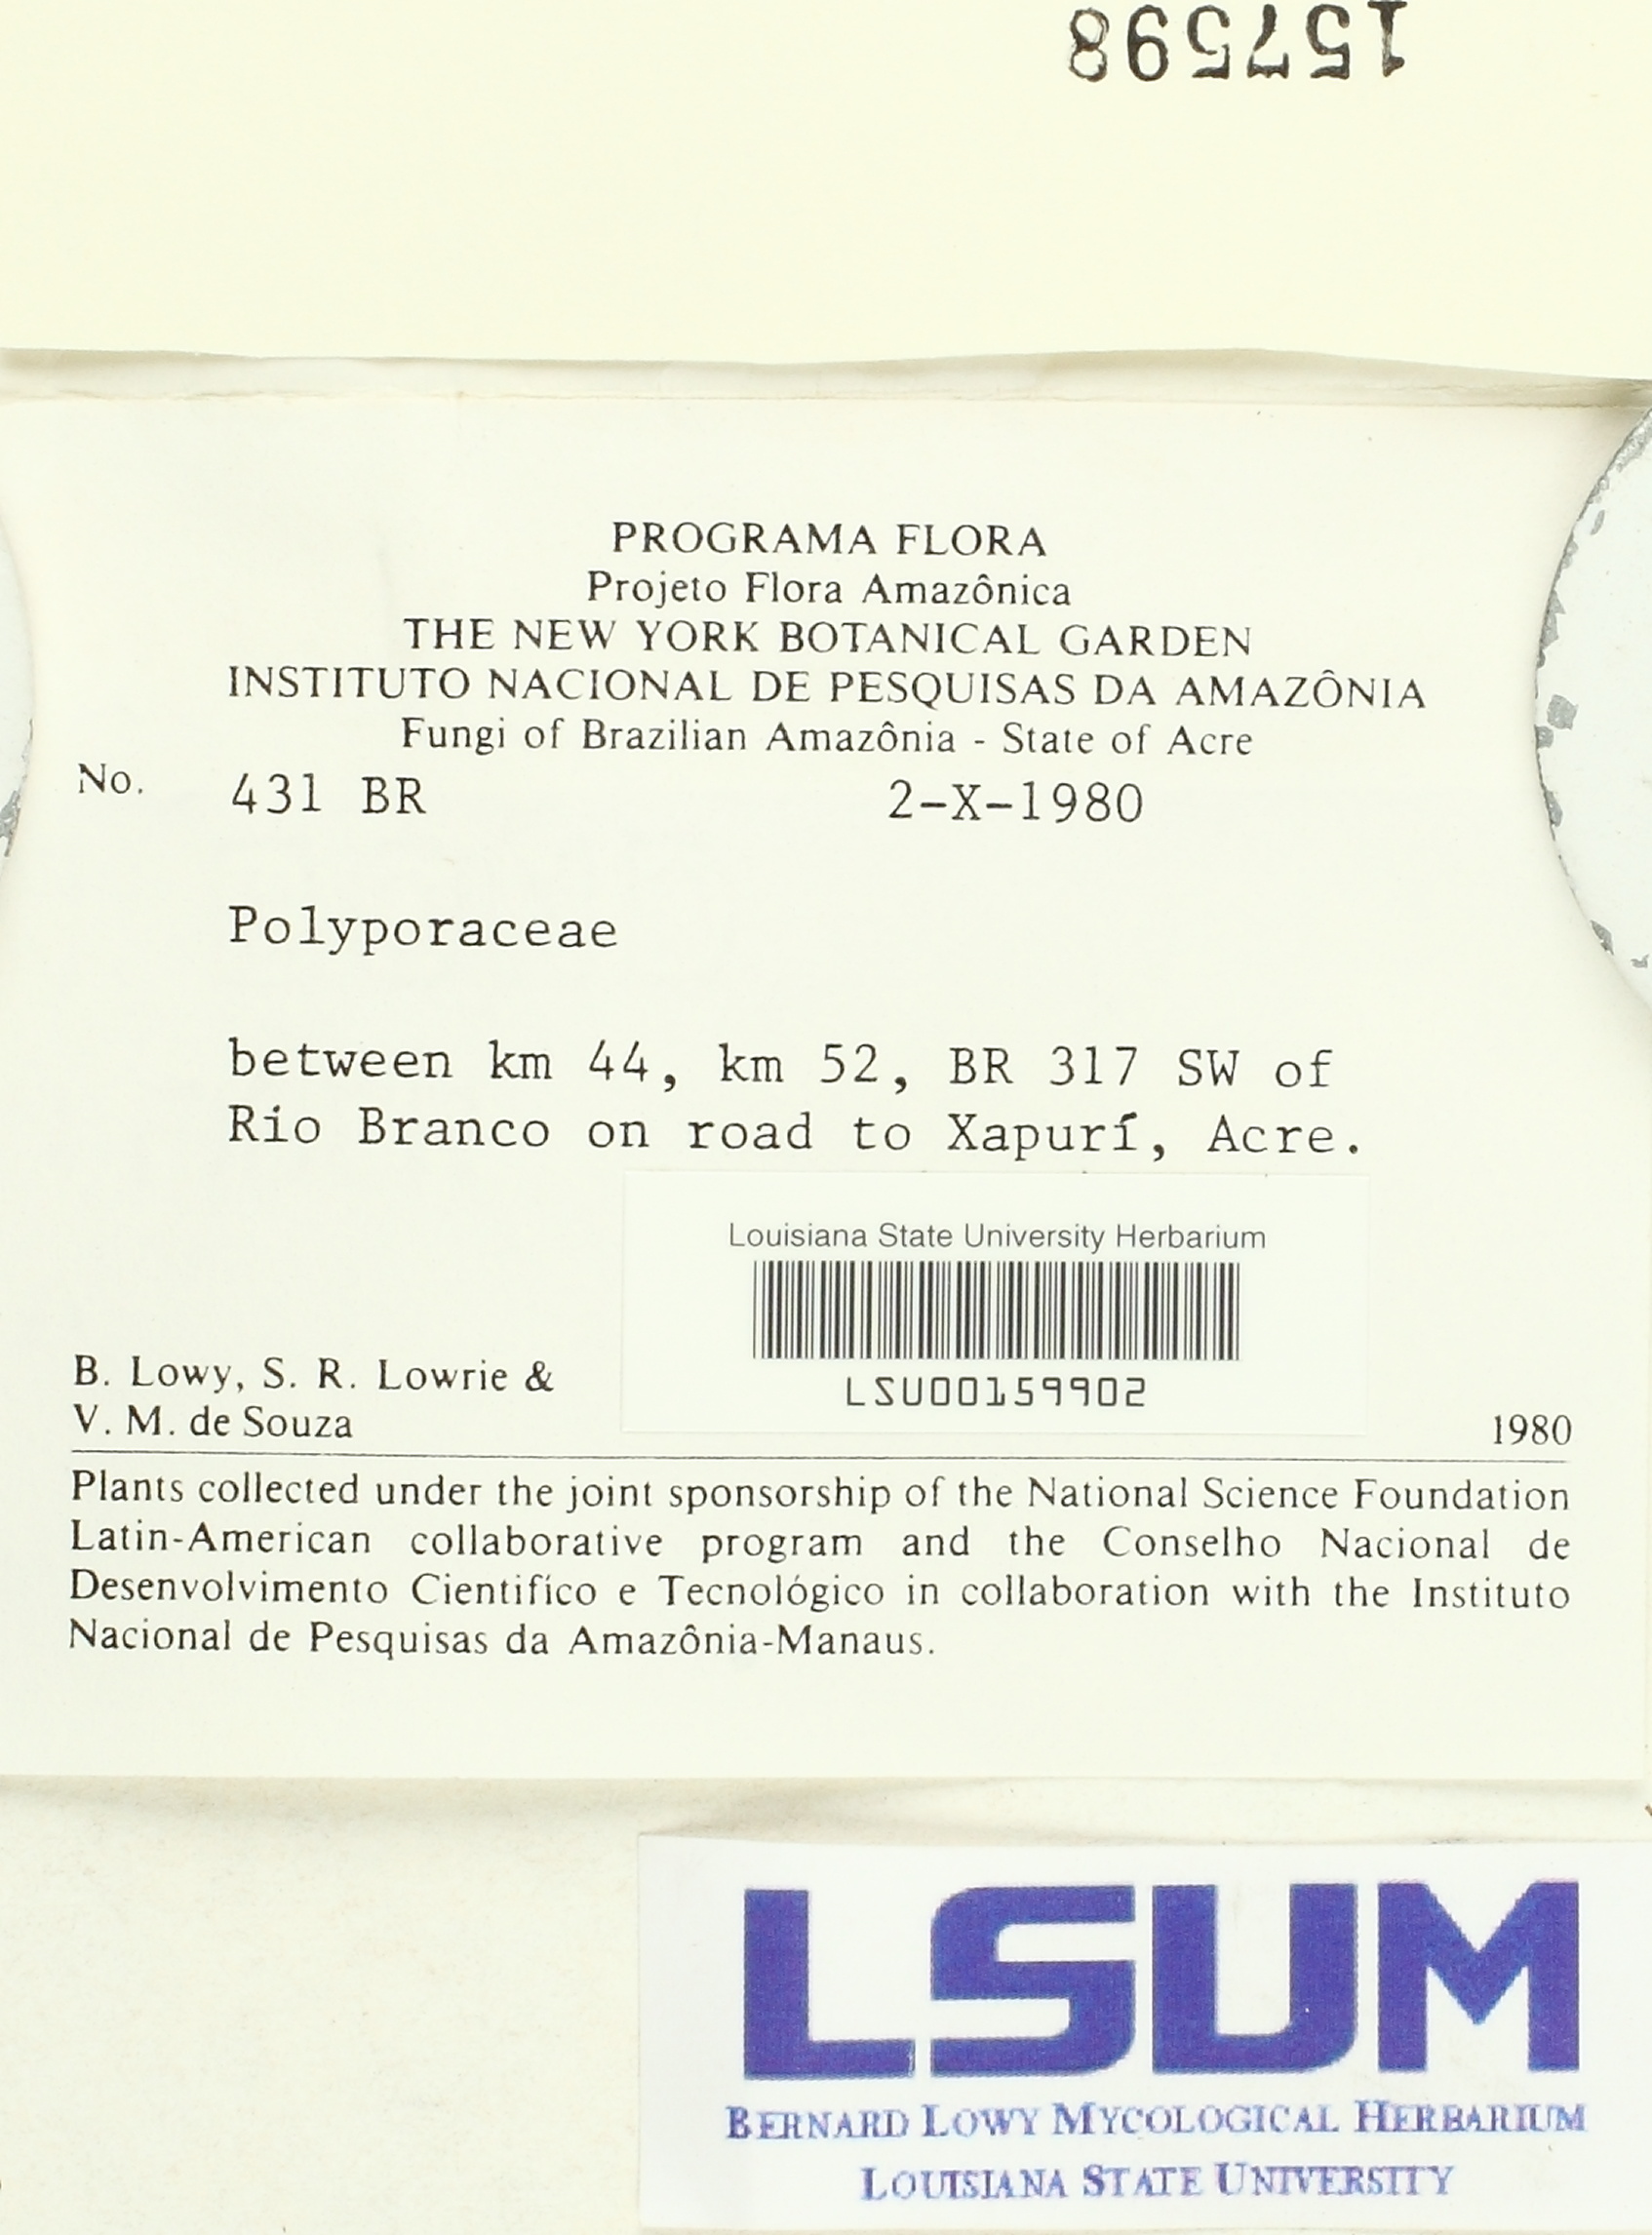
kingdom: Fungi
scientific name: Fungi
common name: Fungi
